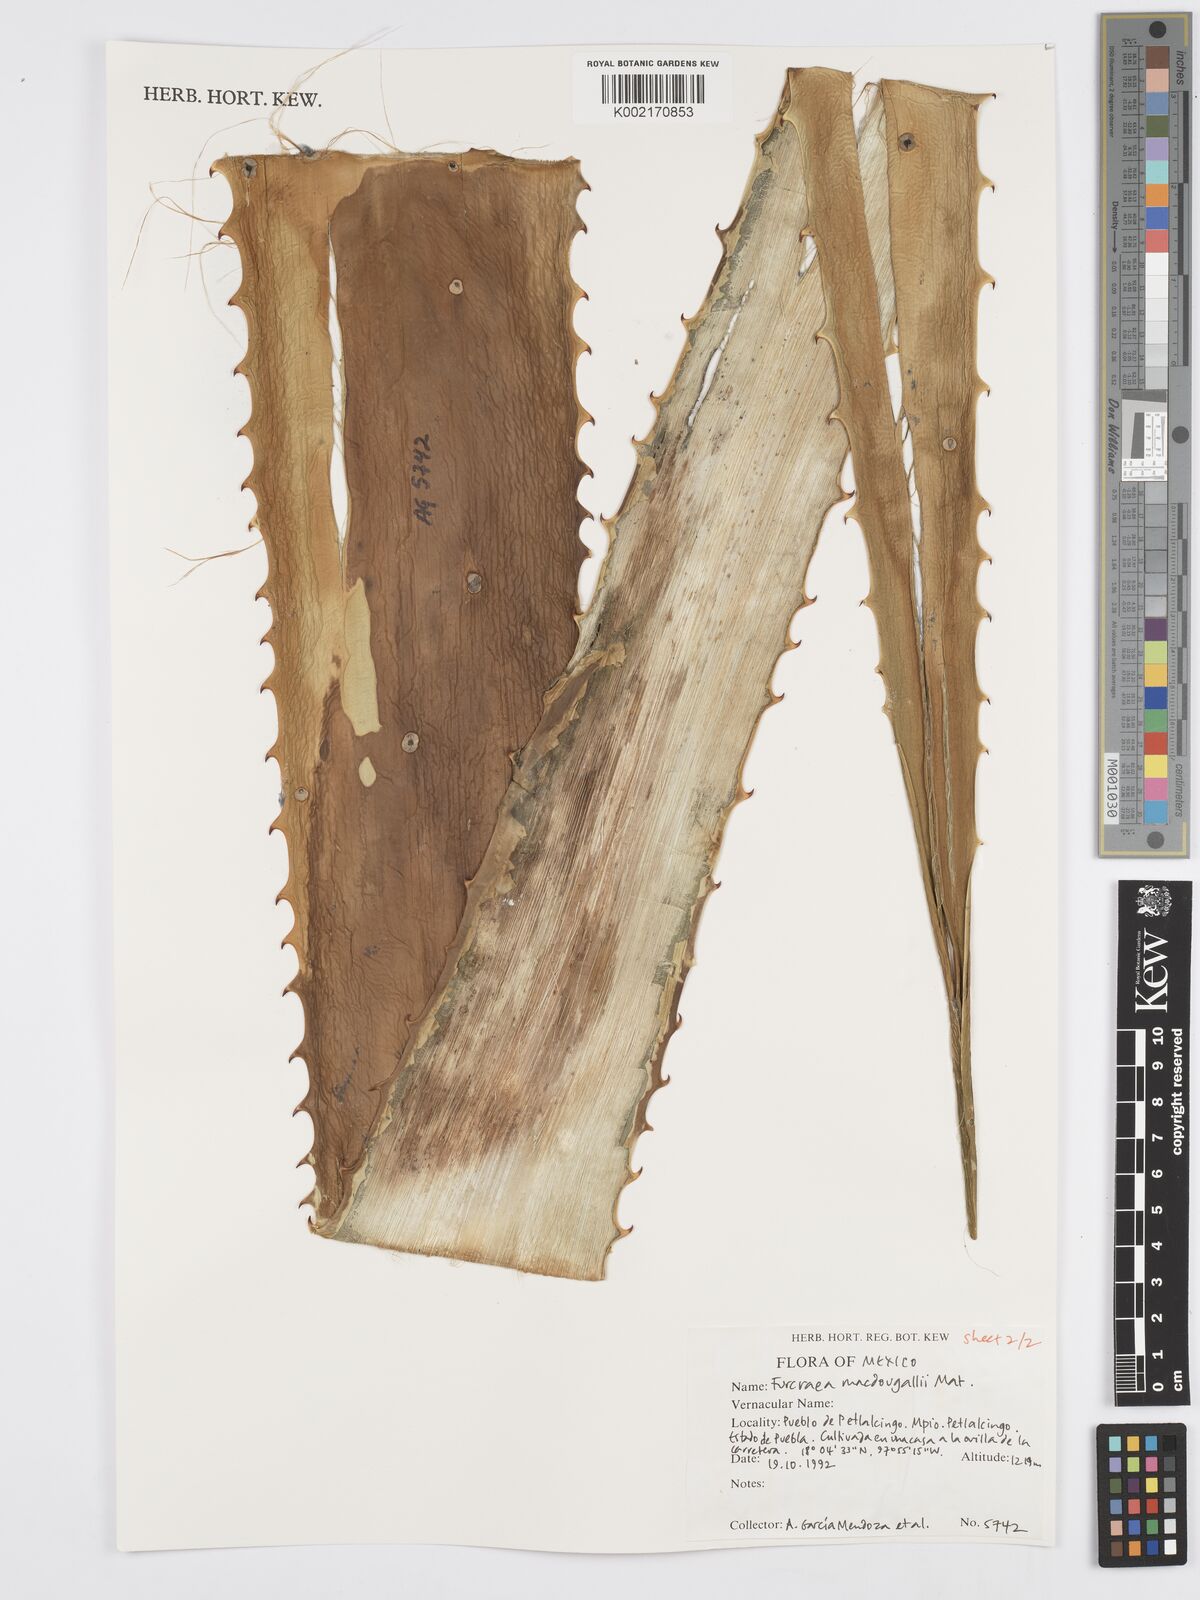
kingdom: Plantae
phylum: Tracheophyta
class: Liliopsida
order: Asparagales
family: Asparagaceae
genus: Furcraea
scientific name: Furcraea macdougallii
